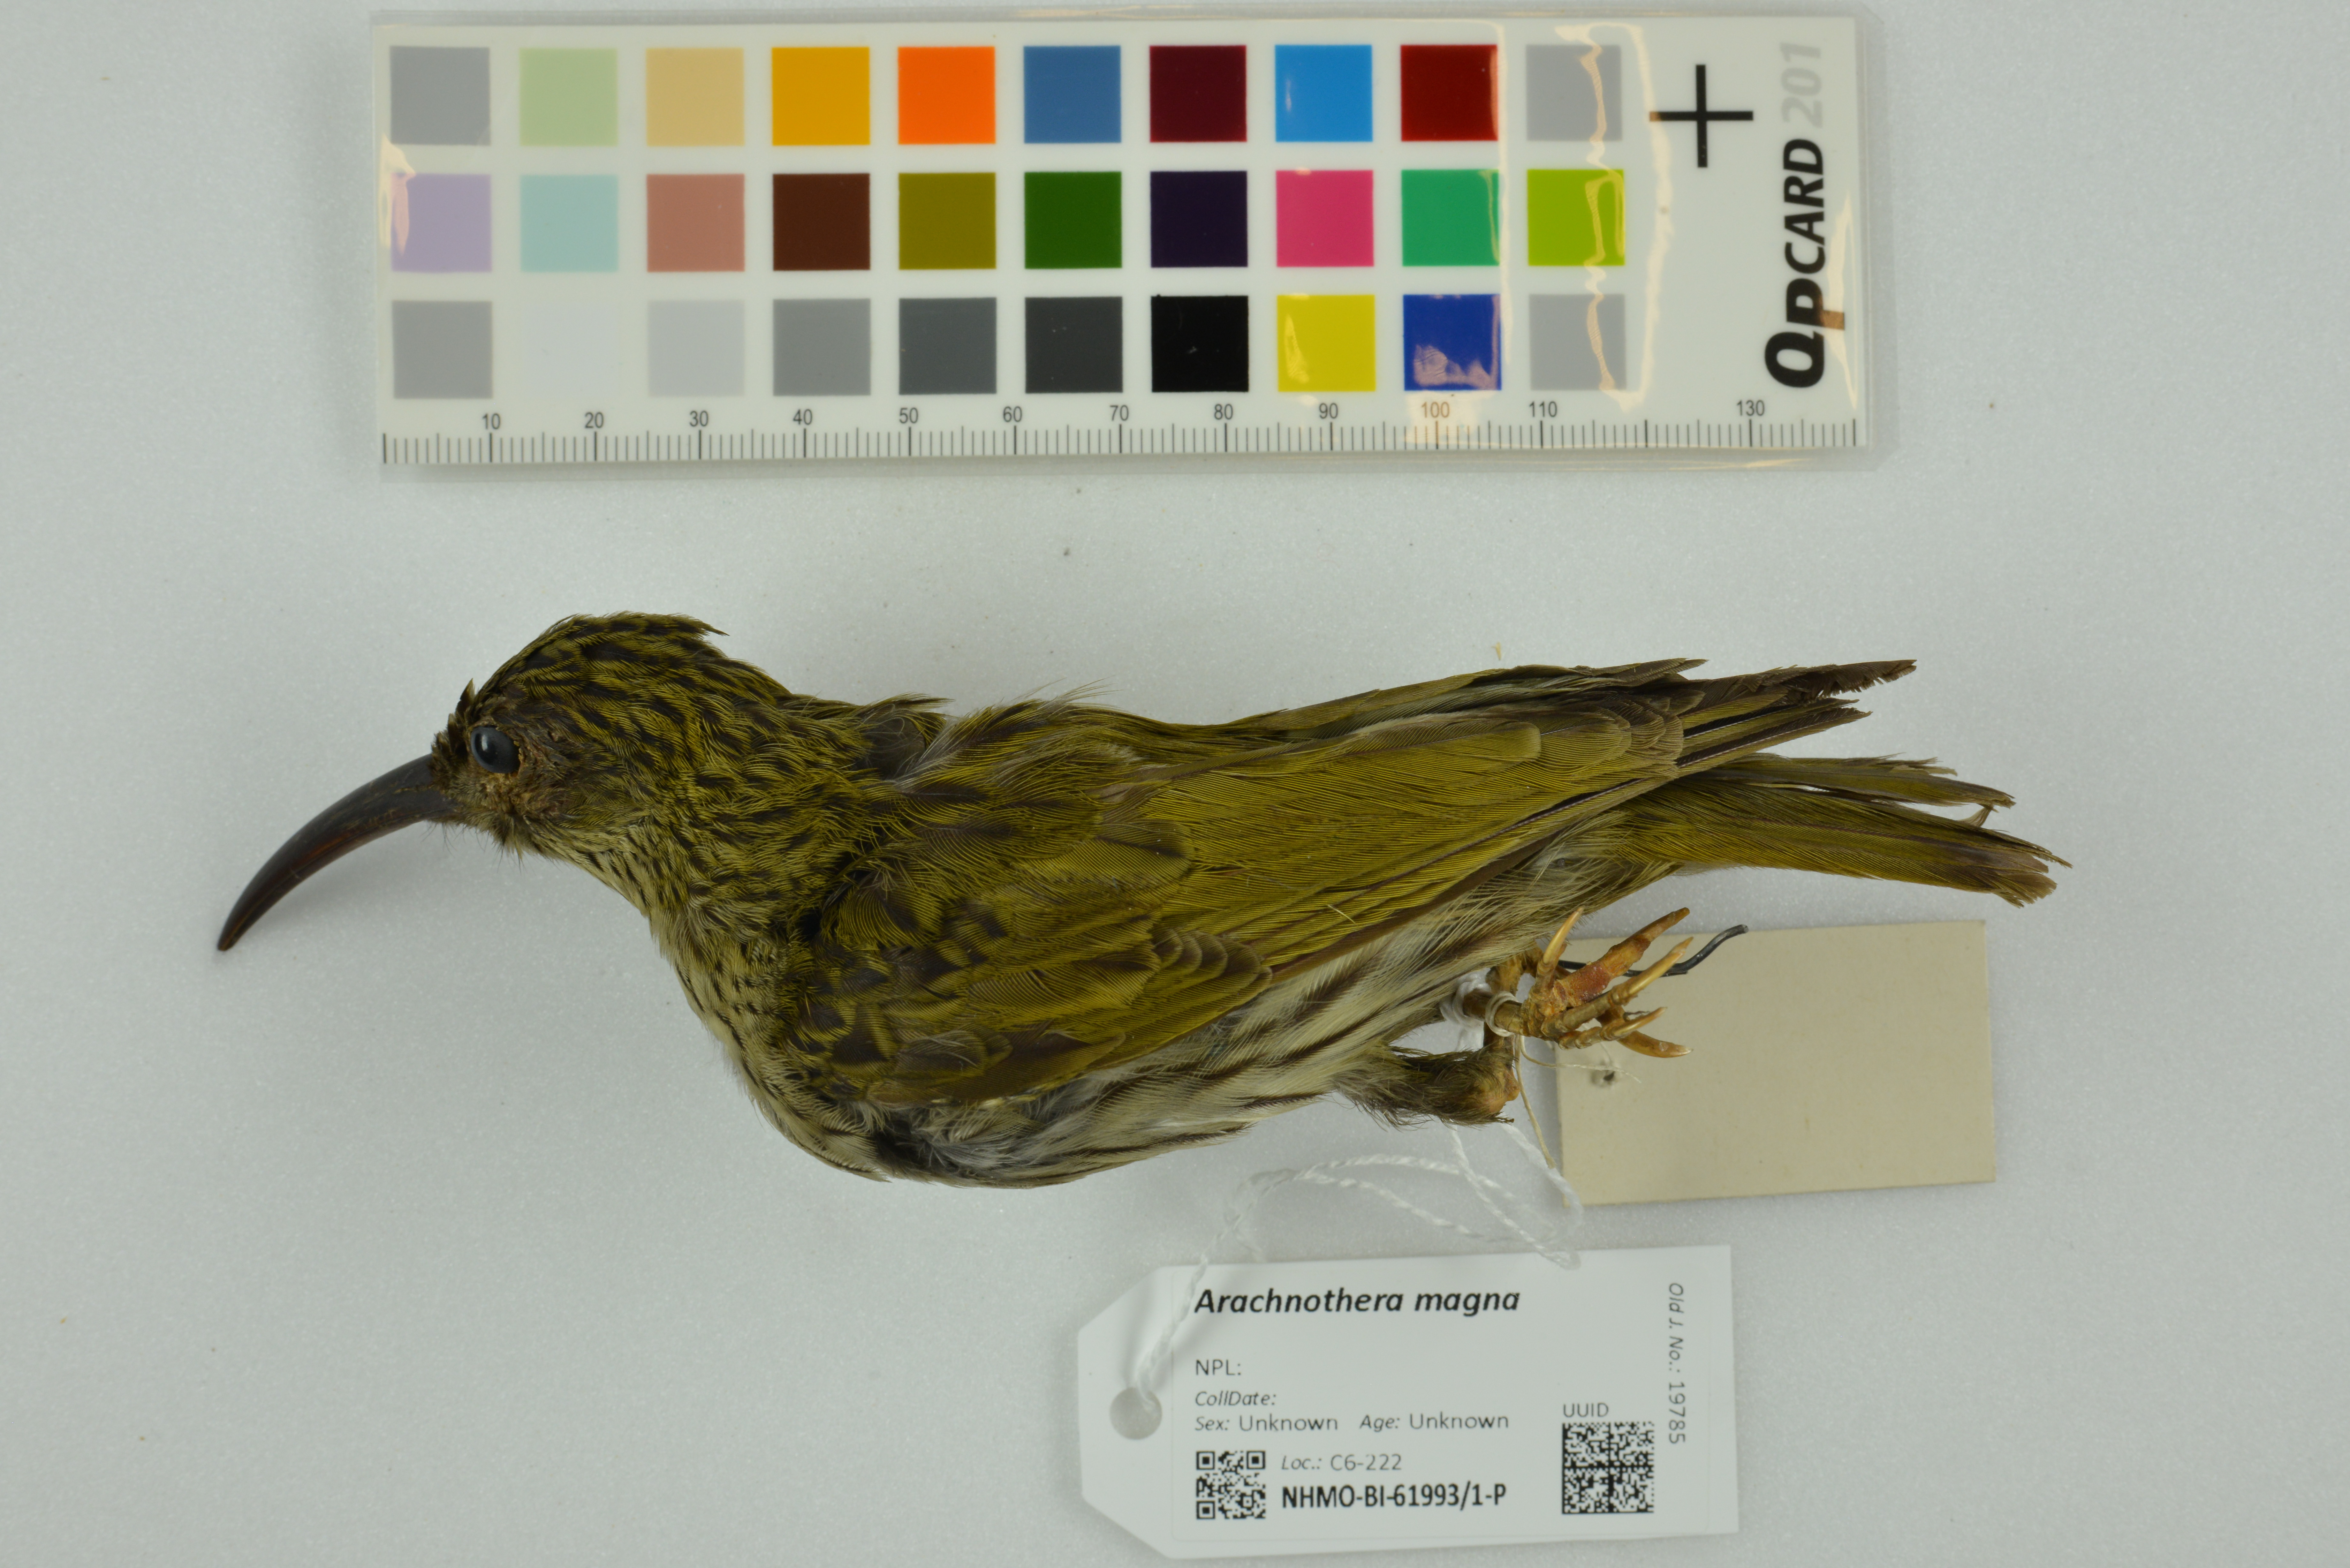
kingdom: Animalia
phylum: Chordata
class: Aves
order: Passeriformes
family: Nectariniidae
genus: Arachnothera
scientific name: Arachnothera magna
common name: Streaked spiderhunter
